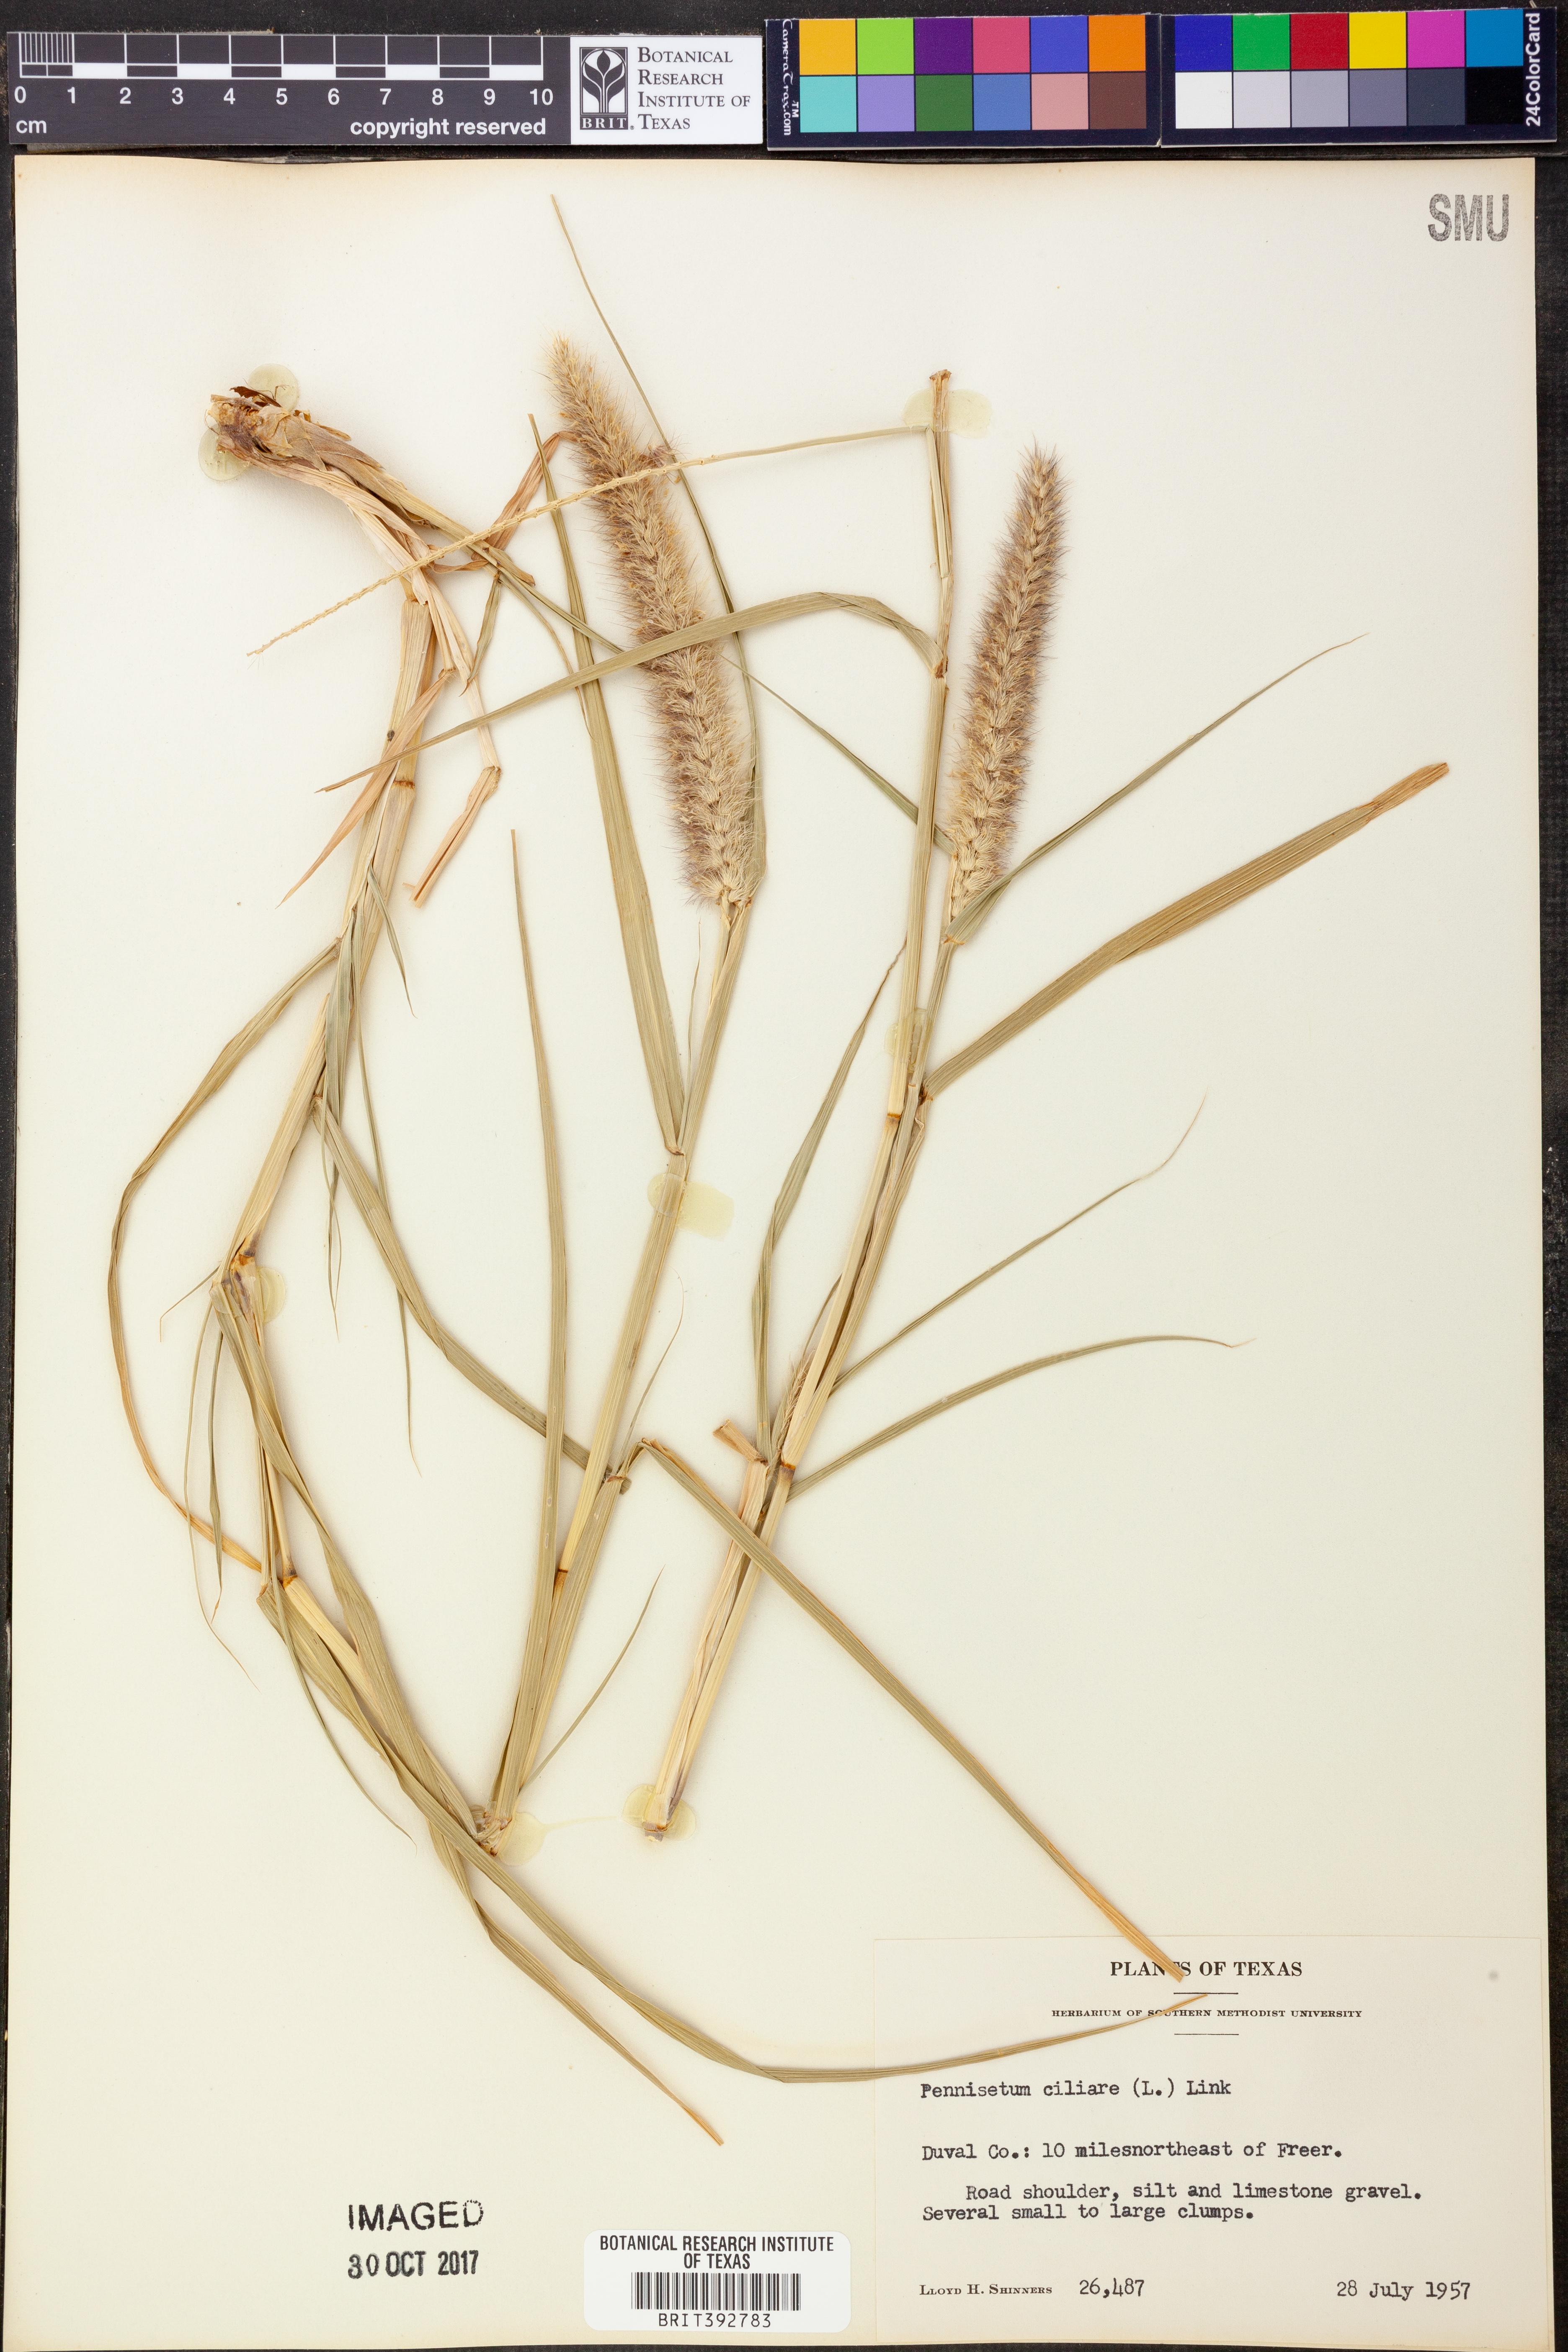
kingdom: Plantae
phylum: Tracheophyta
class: Liliopsida
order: Poales
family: Poaceae
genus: Cenchrus
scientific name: Cenchrus ciliaris
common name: Buffelgrass
